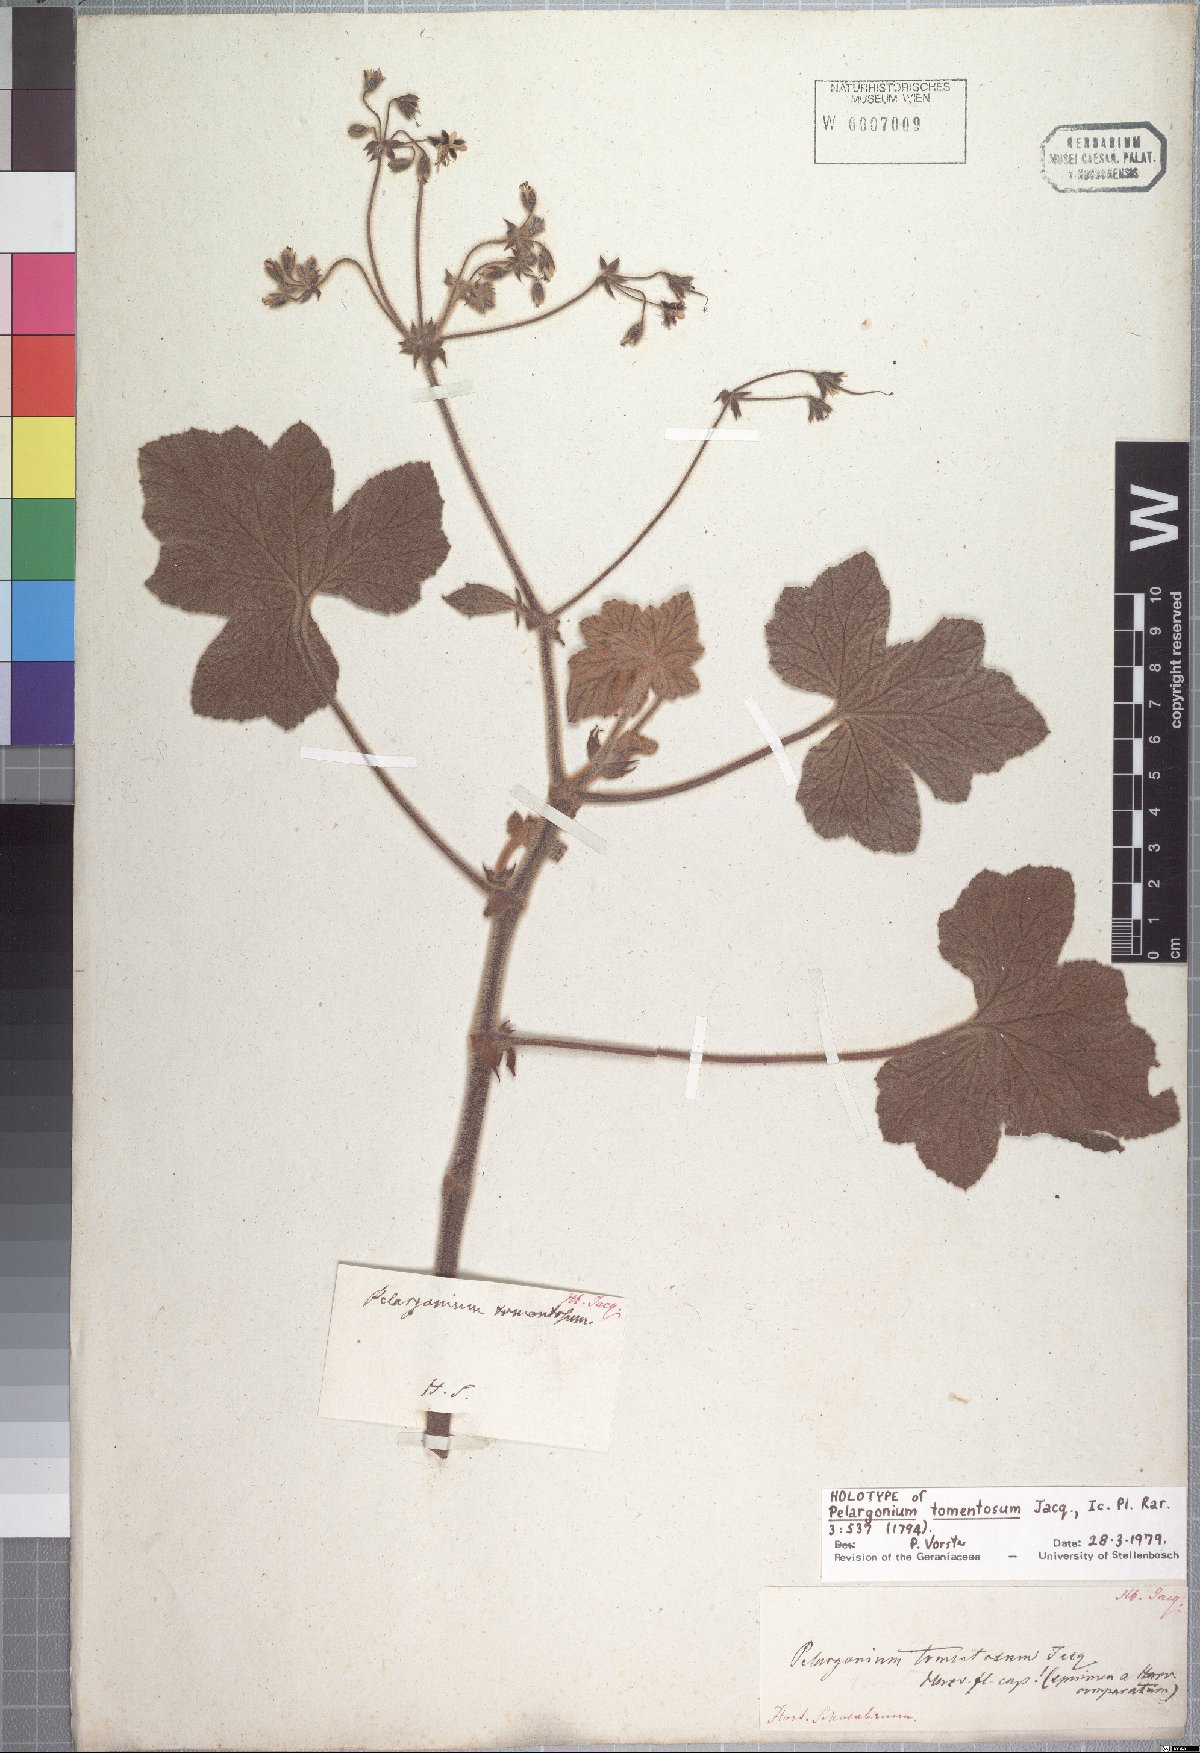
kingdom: Plantae
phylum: Tracheophyta
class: Magnoliopsida
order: Geraniales
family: Geraniaceae
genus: Pelargonium
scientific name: Pelargonium tomentosum
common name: Peppermint-scented geranium
